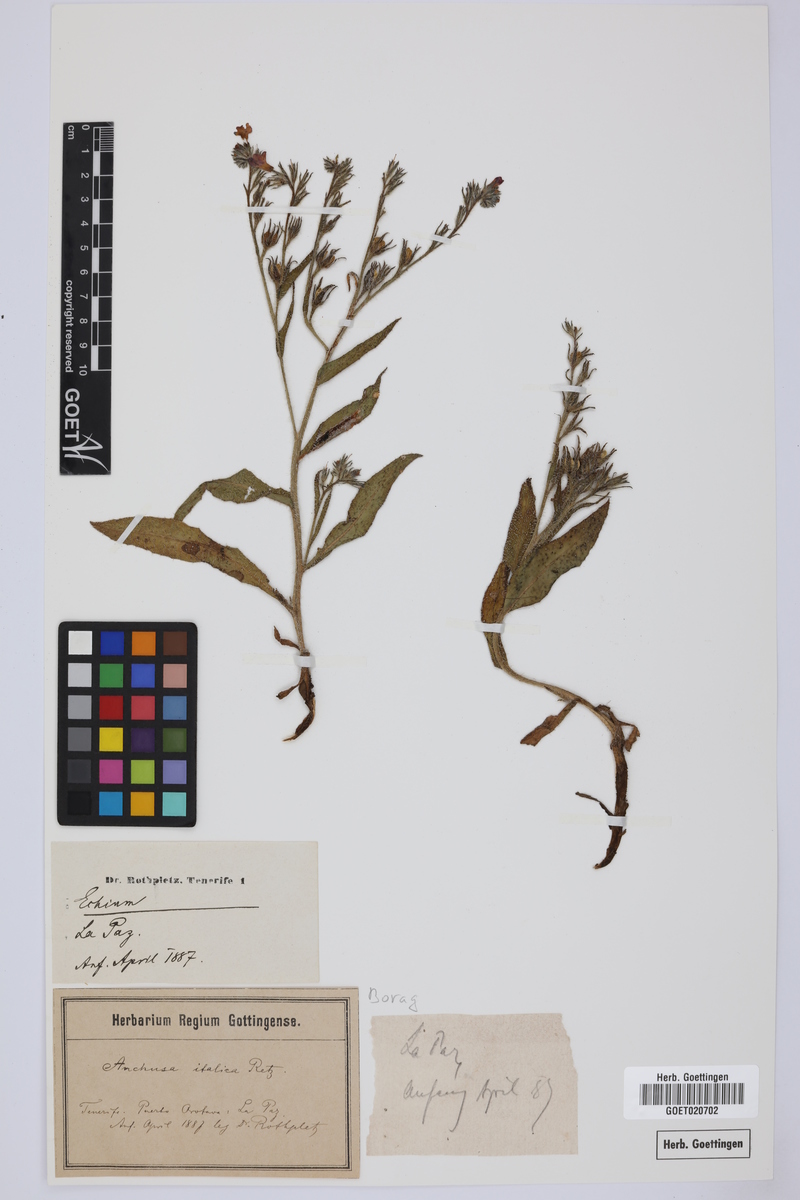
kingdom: Plantae
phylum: Tracheophyta
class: Magnoliopsida
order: Boraginales
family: Boraginaceae
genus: Anchusa
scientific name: Anchusa azurea
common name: Garden anchusa
